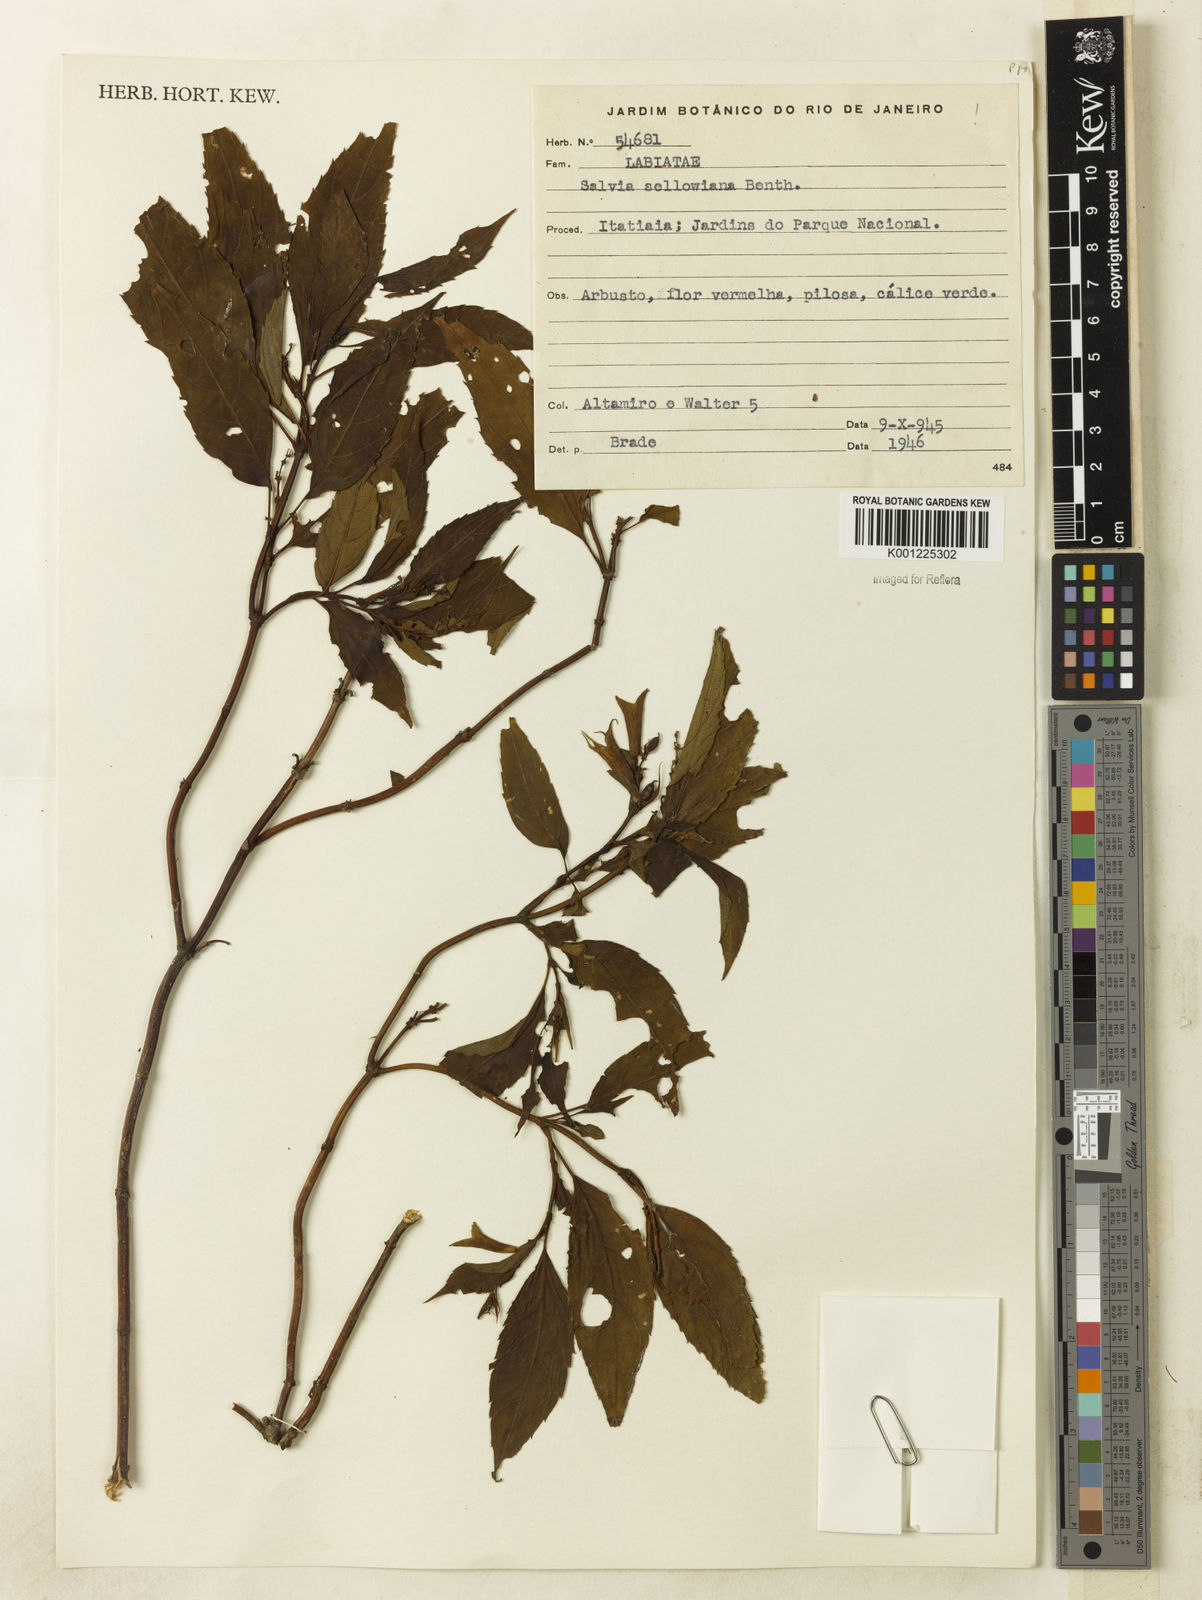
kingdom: Plantae
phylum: Tracheophyta
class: Magnoliopsida
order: Lamiales
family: Lamiaceae
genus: Salvia
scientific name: Salvia sellowiana
